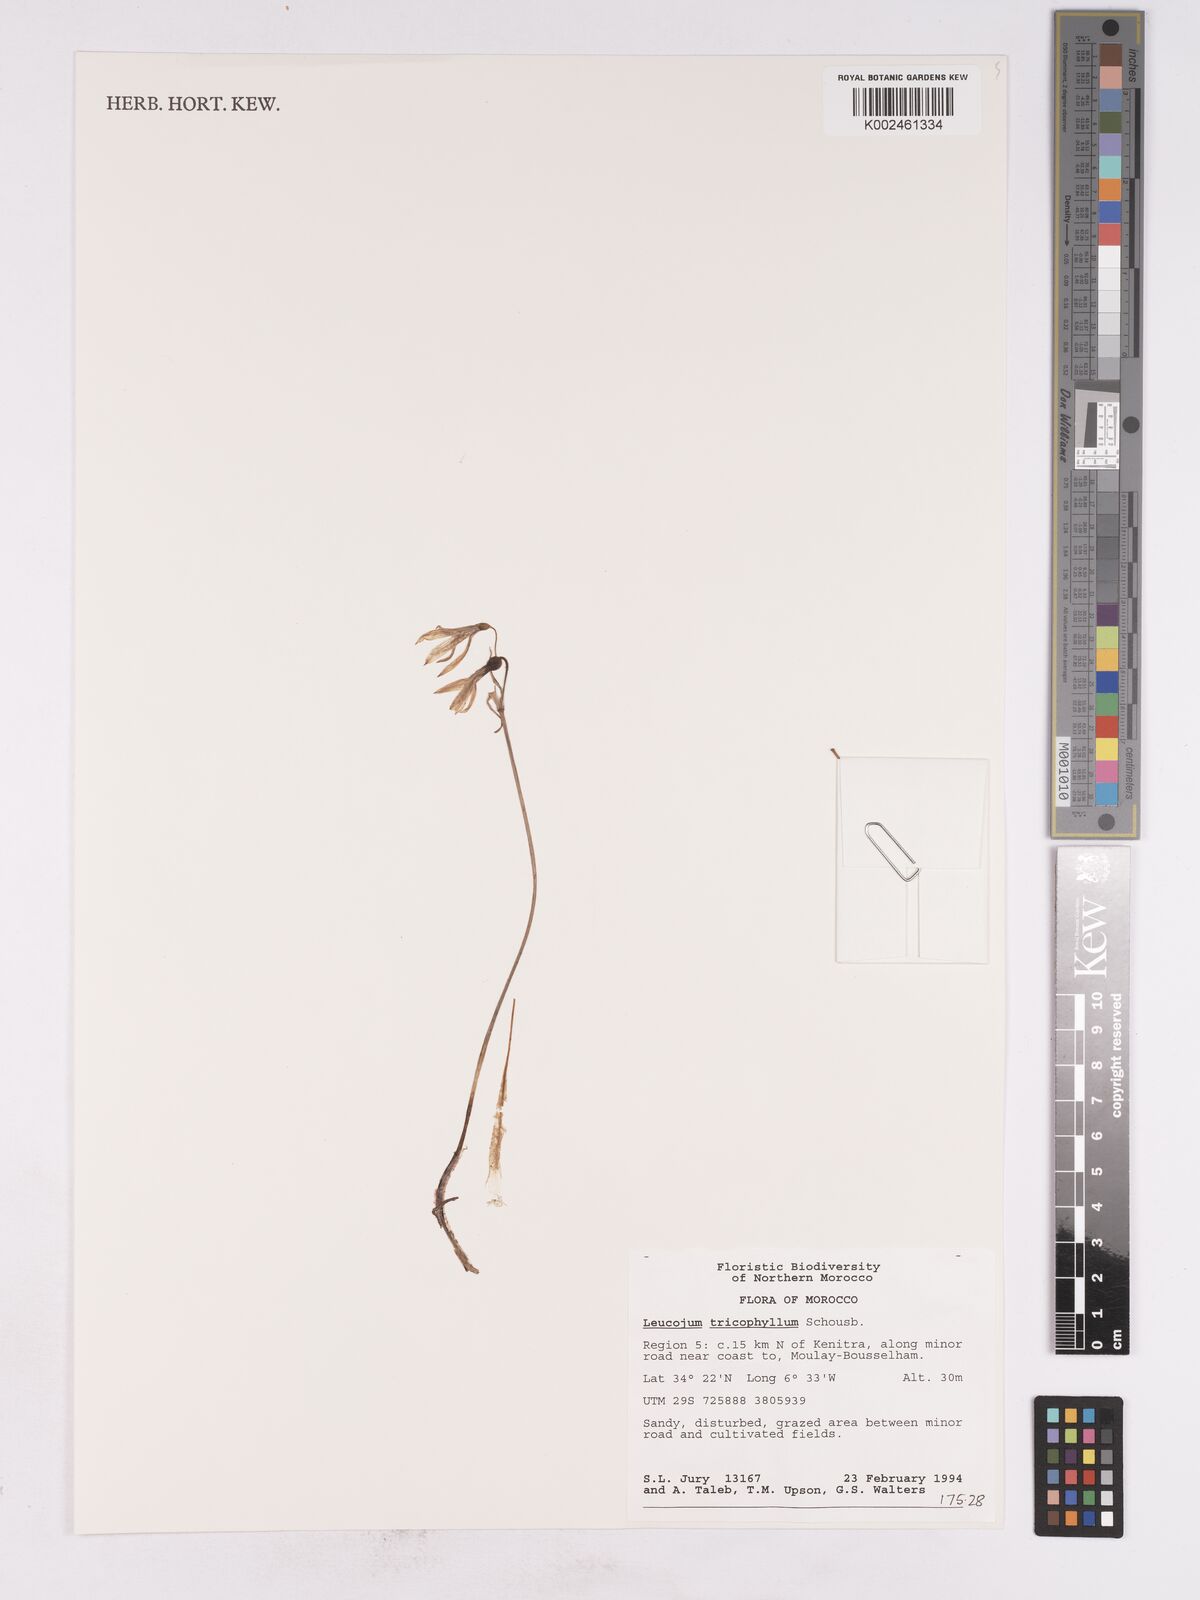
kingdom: Plantae
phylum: Tracheophyta
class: Liliopsida
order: Asparagales
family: Amaryllidaceae
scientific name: Amaryllidaceae
